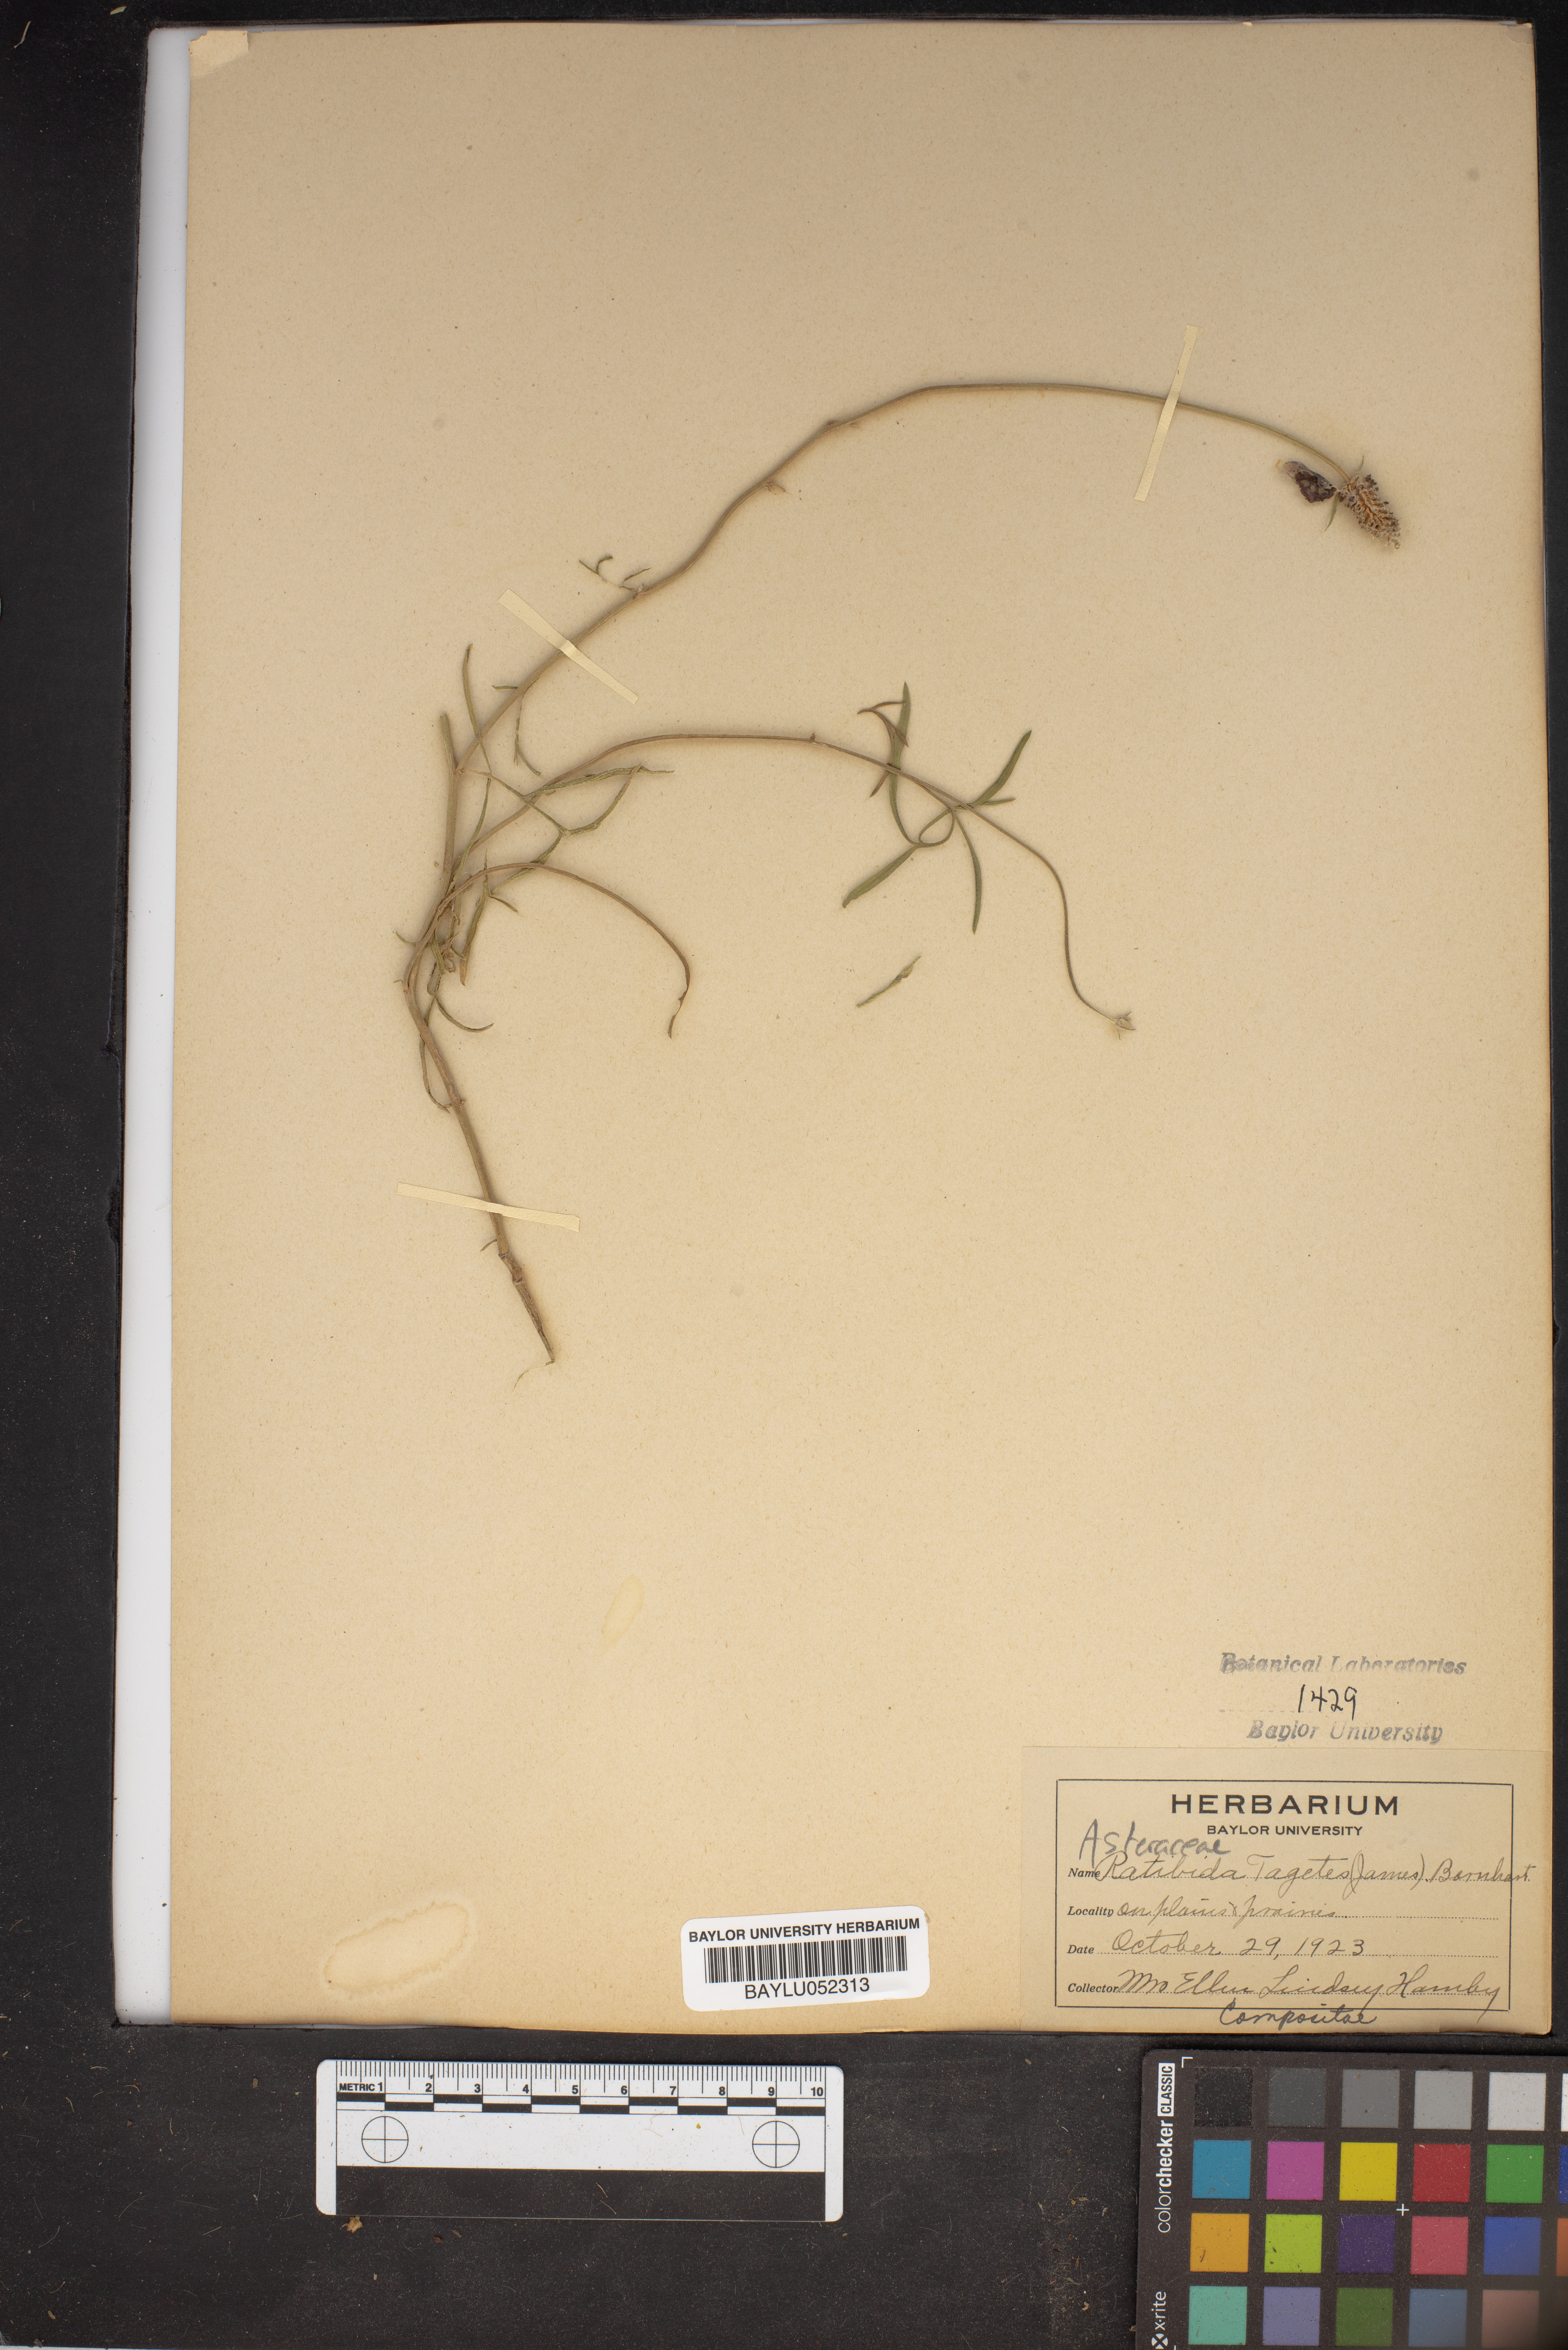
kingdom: Plantae
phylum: Tracheophyta
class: Magnoliopsida
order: Asterales
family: Asteraceae
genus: Ratibida
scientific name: Ratibida tagetes
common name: Green mexican-hat
